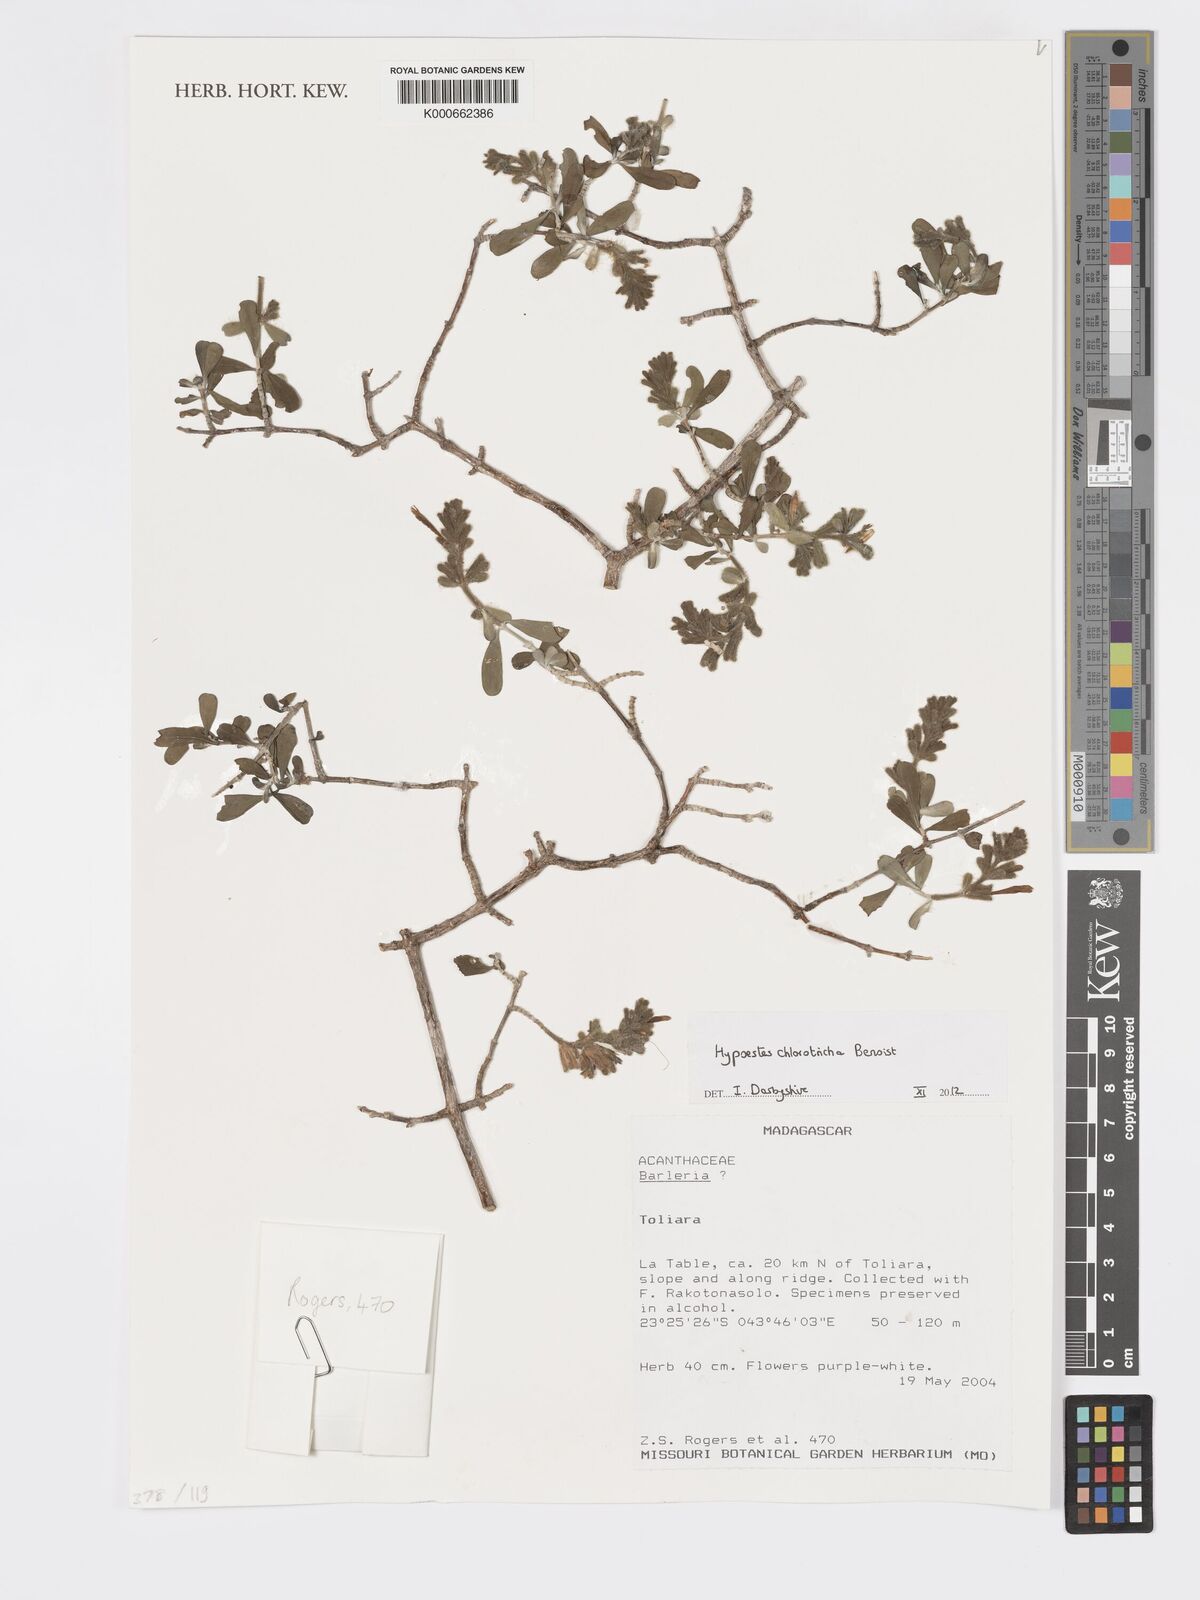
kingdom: Plantae
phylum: Tracheophyta
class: Magnoliopsida
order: Lamiales
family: Acanthaceae
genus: Hypoestes
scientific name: Hypoestes chlorotricha
